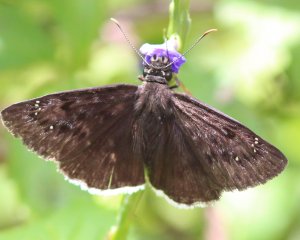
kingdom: Animalia
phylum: Arthropoda
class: Insecta
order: Lepidoptera
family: Hesperiidae
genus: Erynnis
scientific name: Erynnis tristis
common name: Mournful Duskywing
